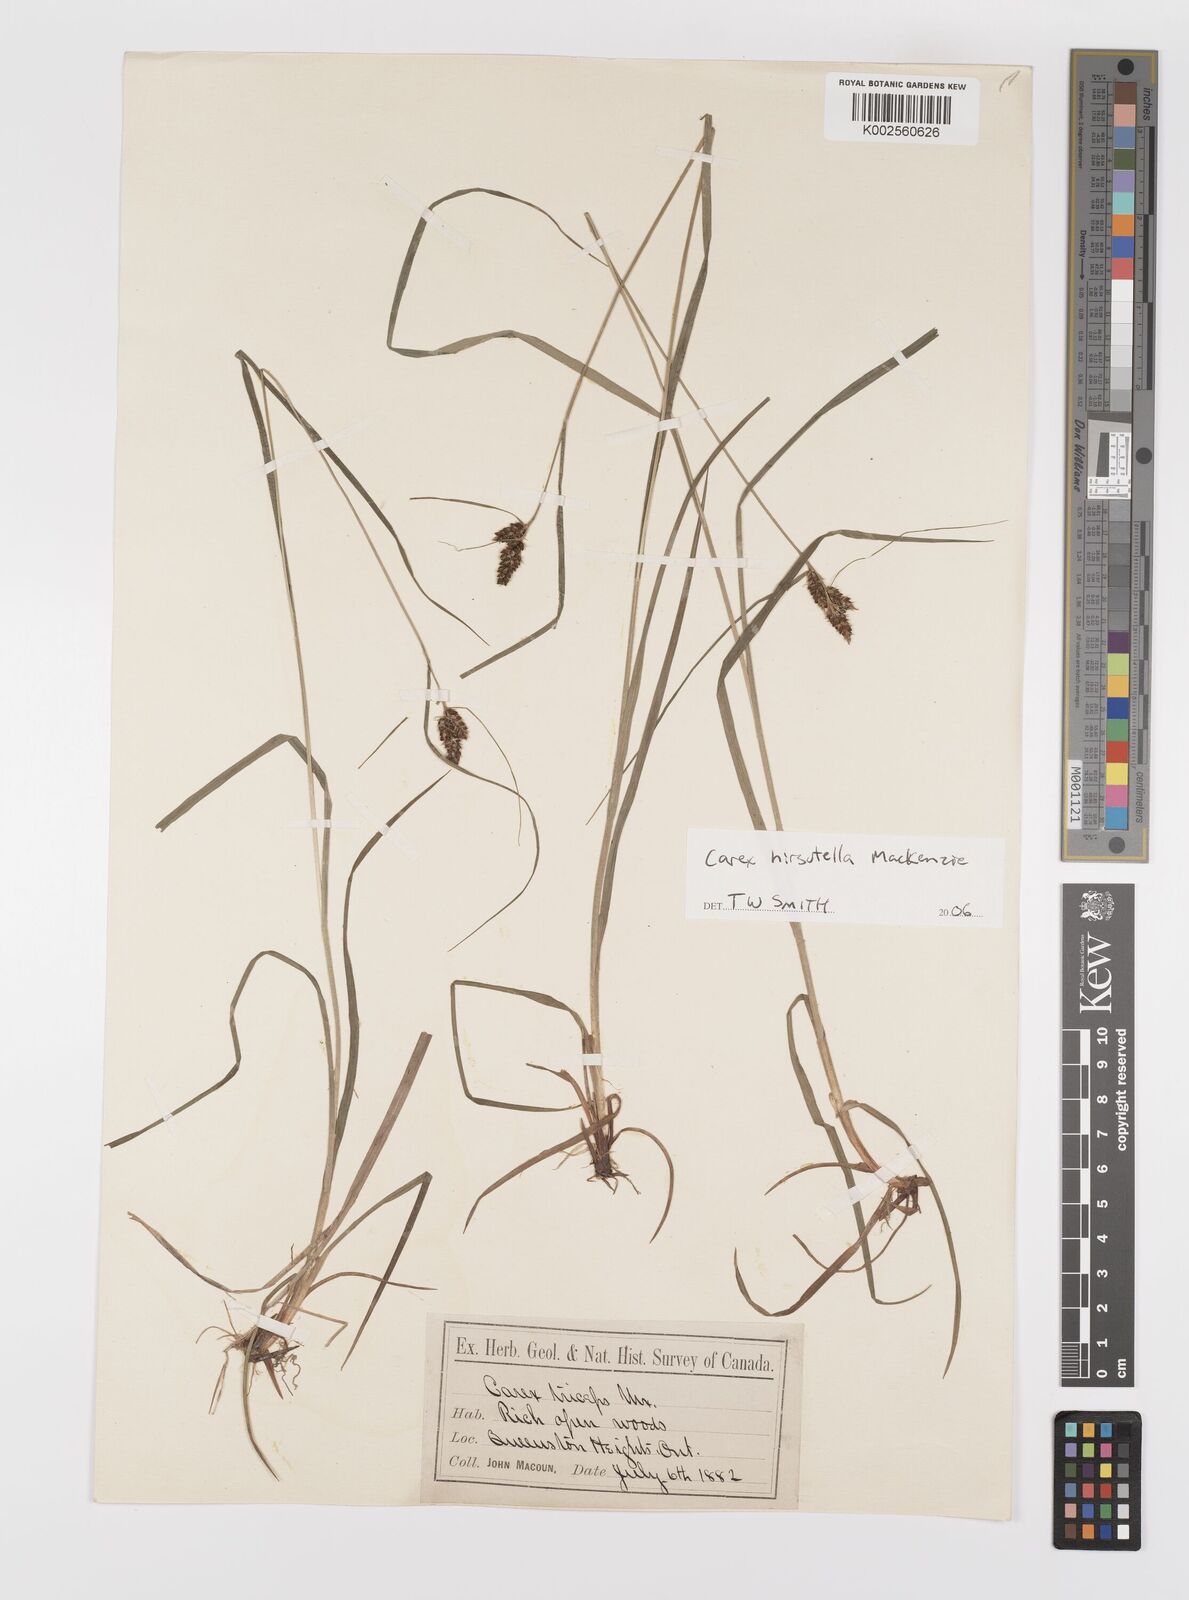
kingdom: Plantae
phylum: Tracheophyta
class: Liliopsida
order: Poales
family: Cyperaceae
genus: Carex
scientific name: Carex hirsutella
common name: Fuzzy wuzzy sedge
